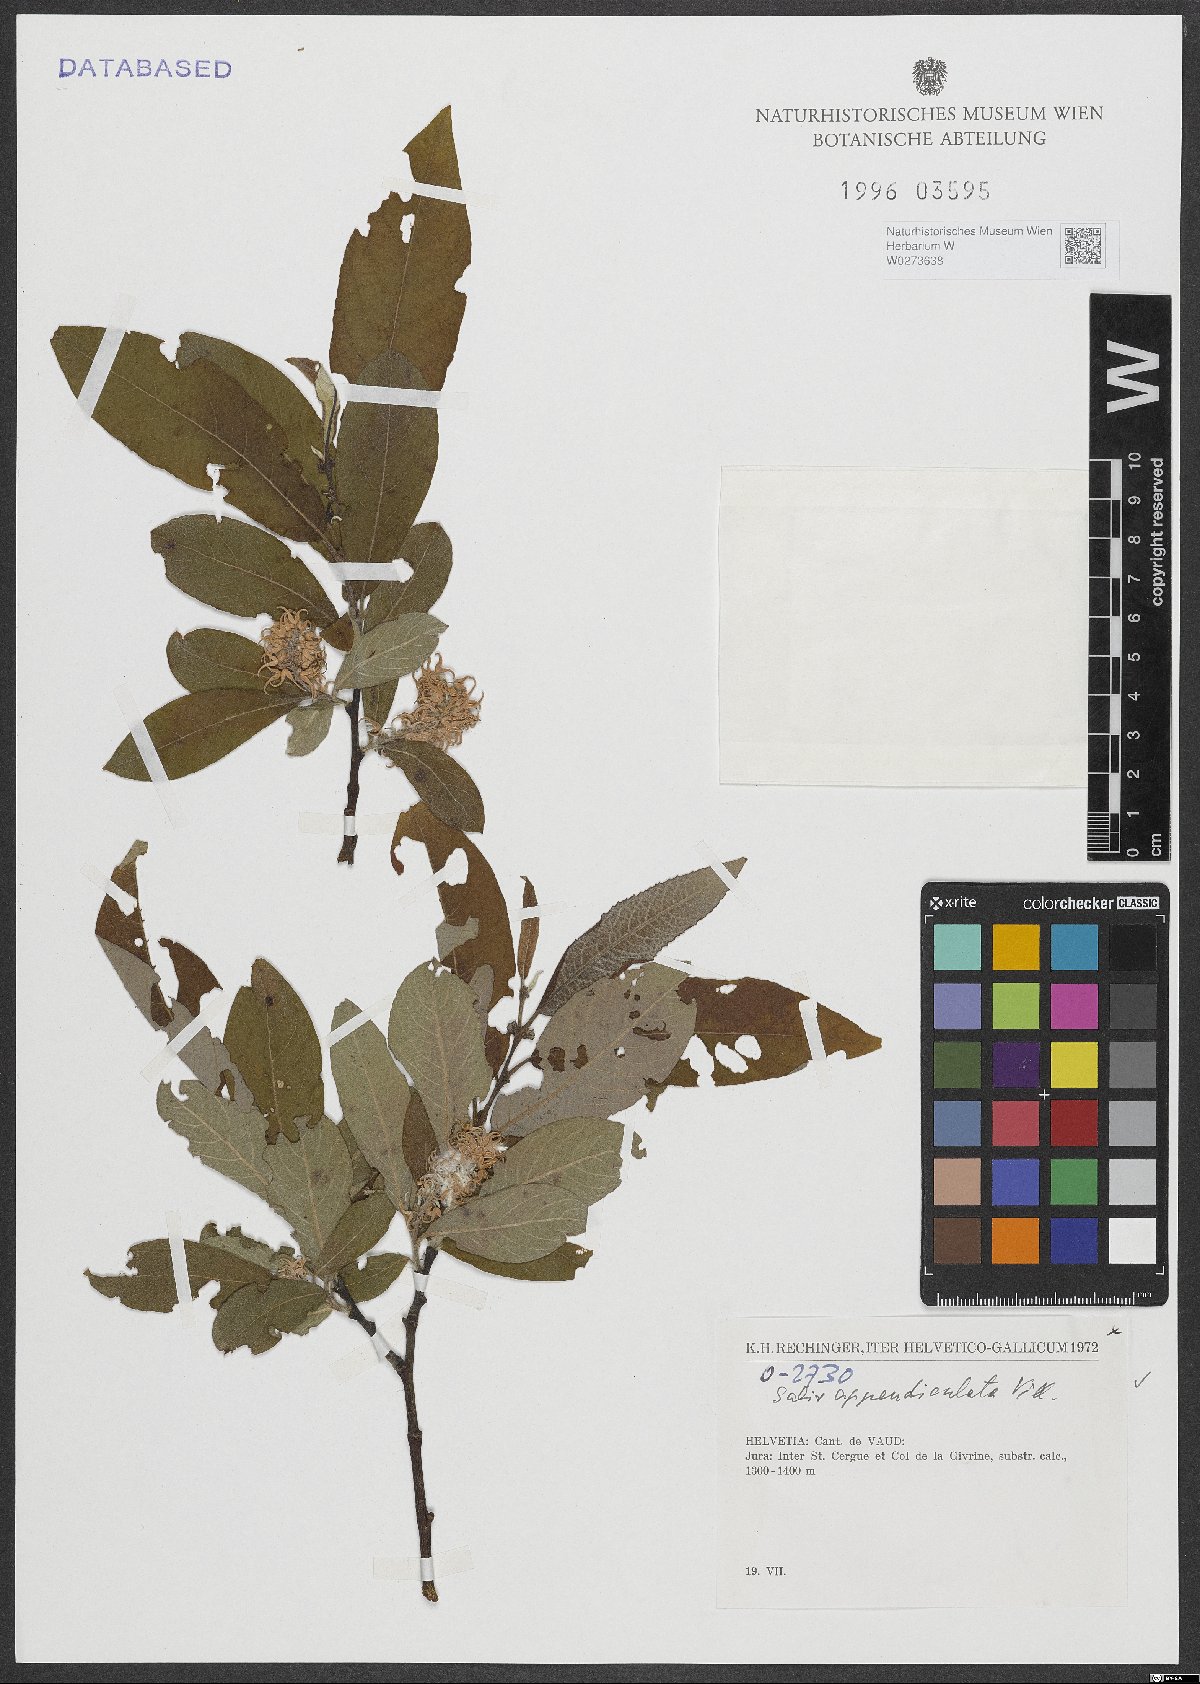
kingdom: Plantae
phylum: Tracheophyta
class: Magnoliopsida
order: Malpighiales
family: Salicaceae
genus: Salix
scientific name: Salix appendiculata
